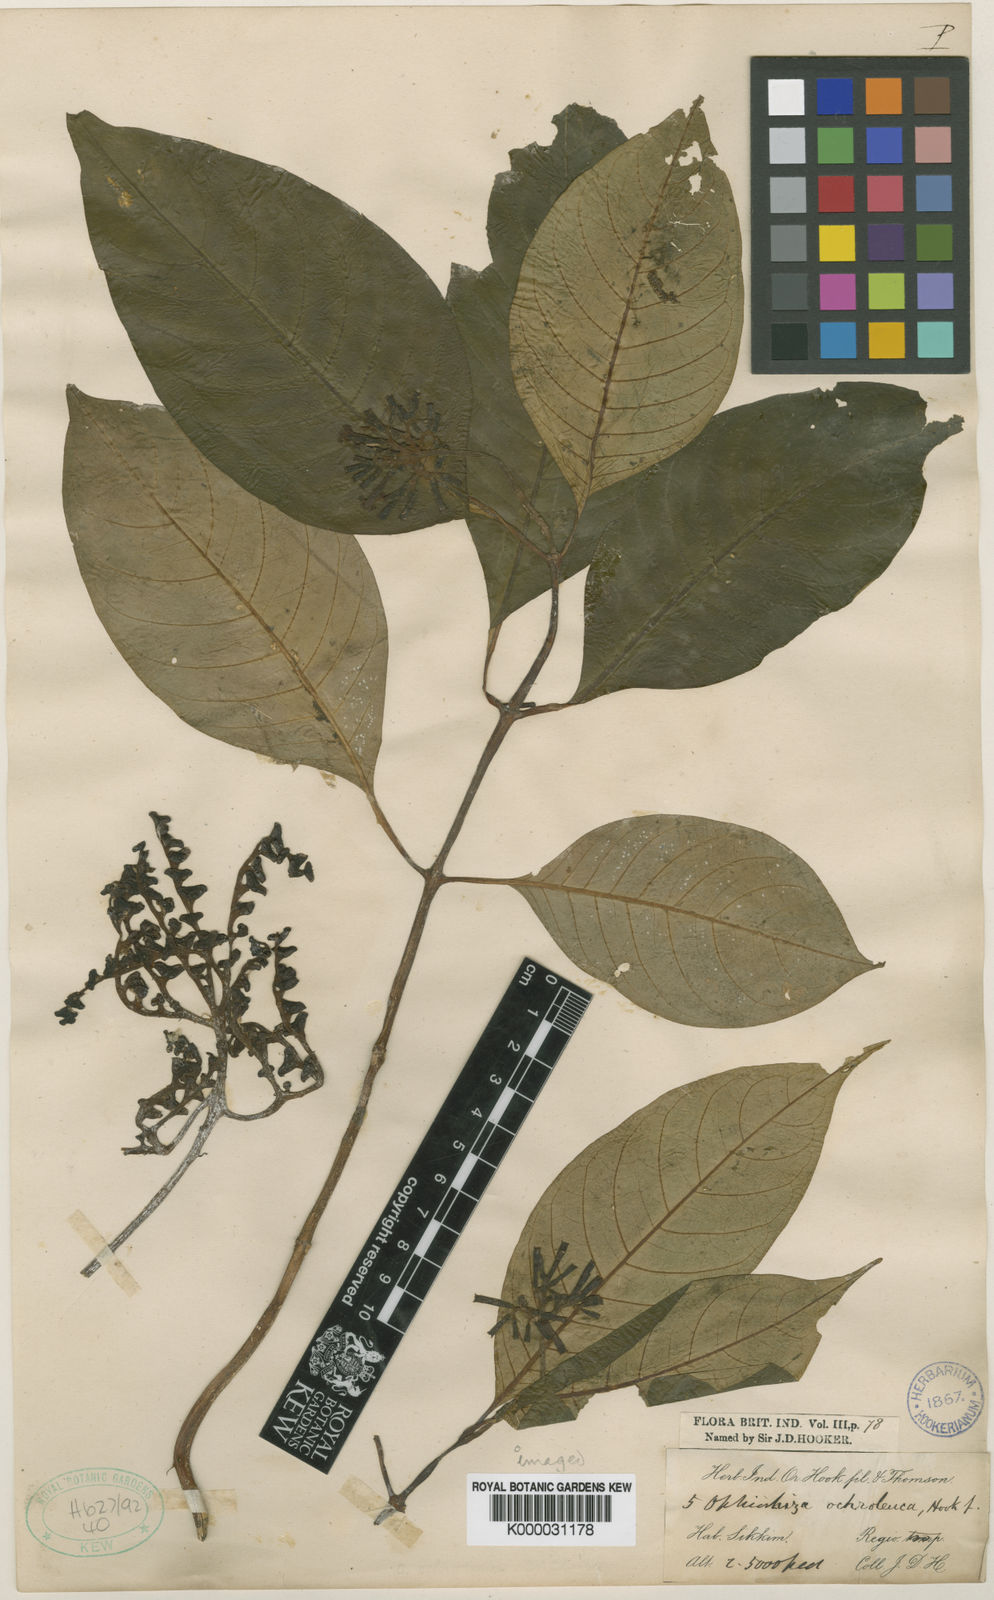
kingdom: Plantae
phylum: Tracheophyta
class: Magnoliopsida
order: Gentianales
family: Rubiaceae
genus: Ophiorrhiza
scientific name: Ophiorrhiza ochroleuca
